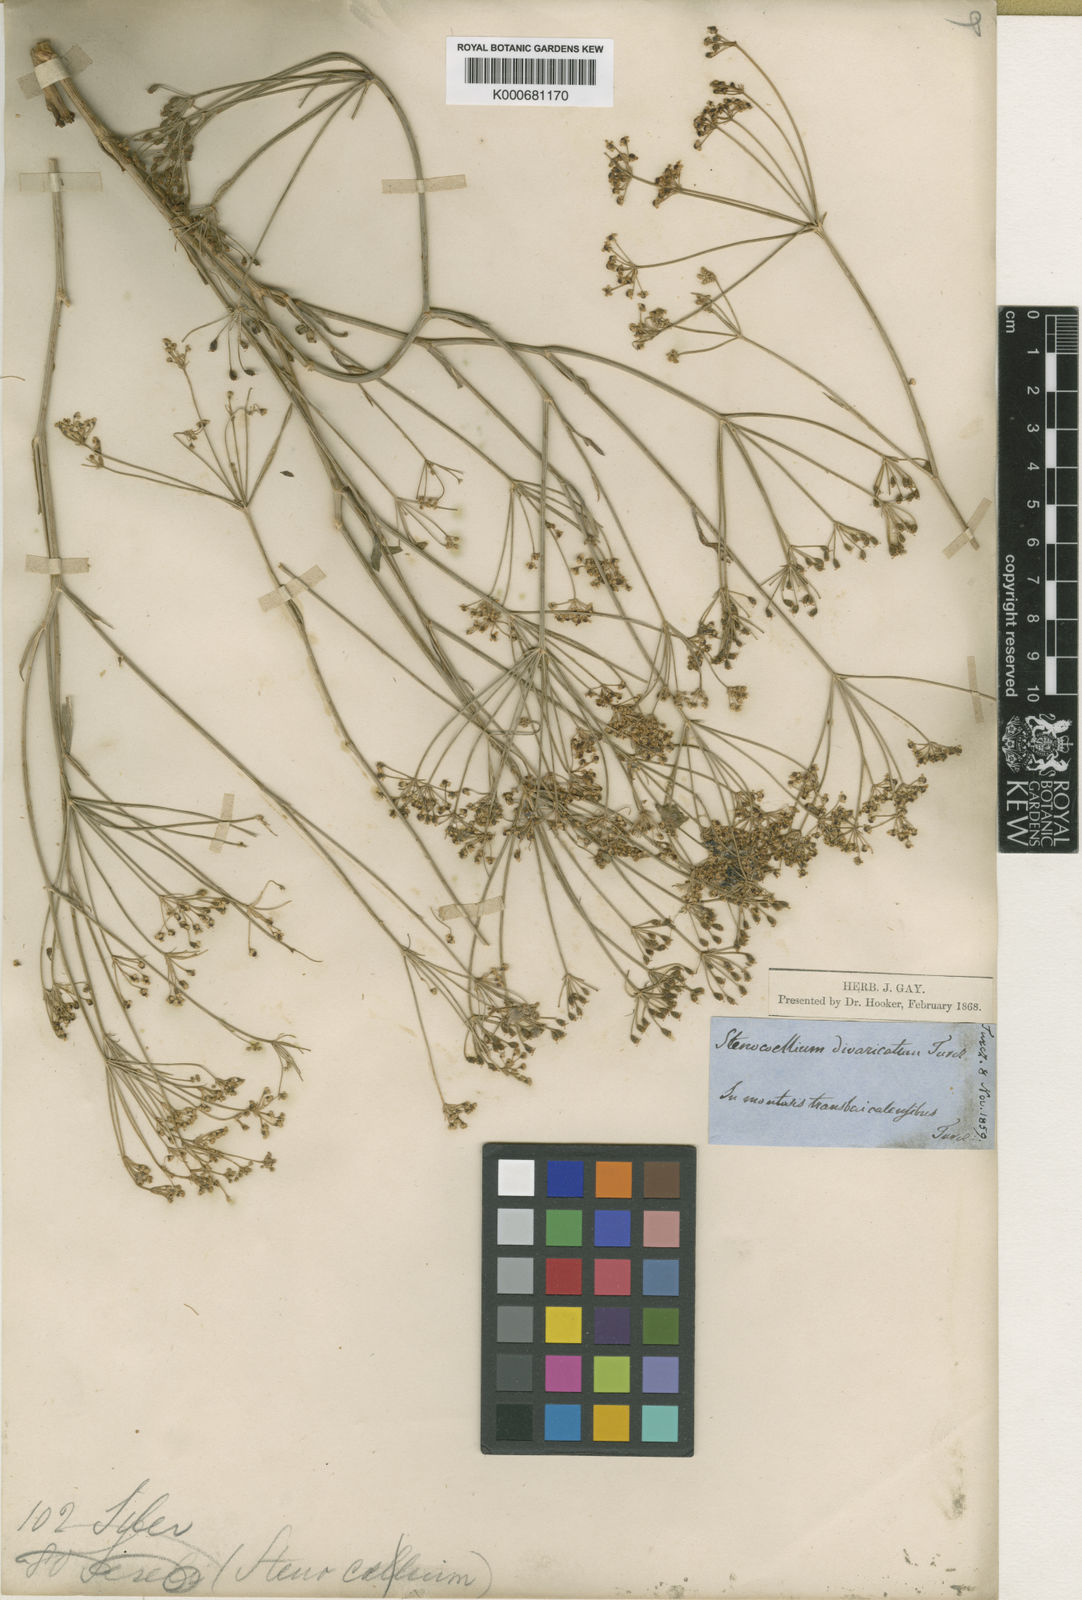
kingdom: Plantae
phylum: Tracheophyta
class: Magnoliopsida
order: Apiales
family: Apiaceae
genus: Saposhnikovia
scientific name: Saposhnikovia divaricata
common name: Siler
